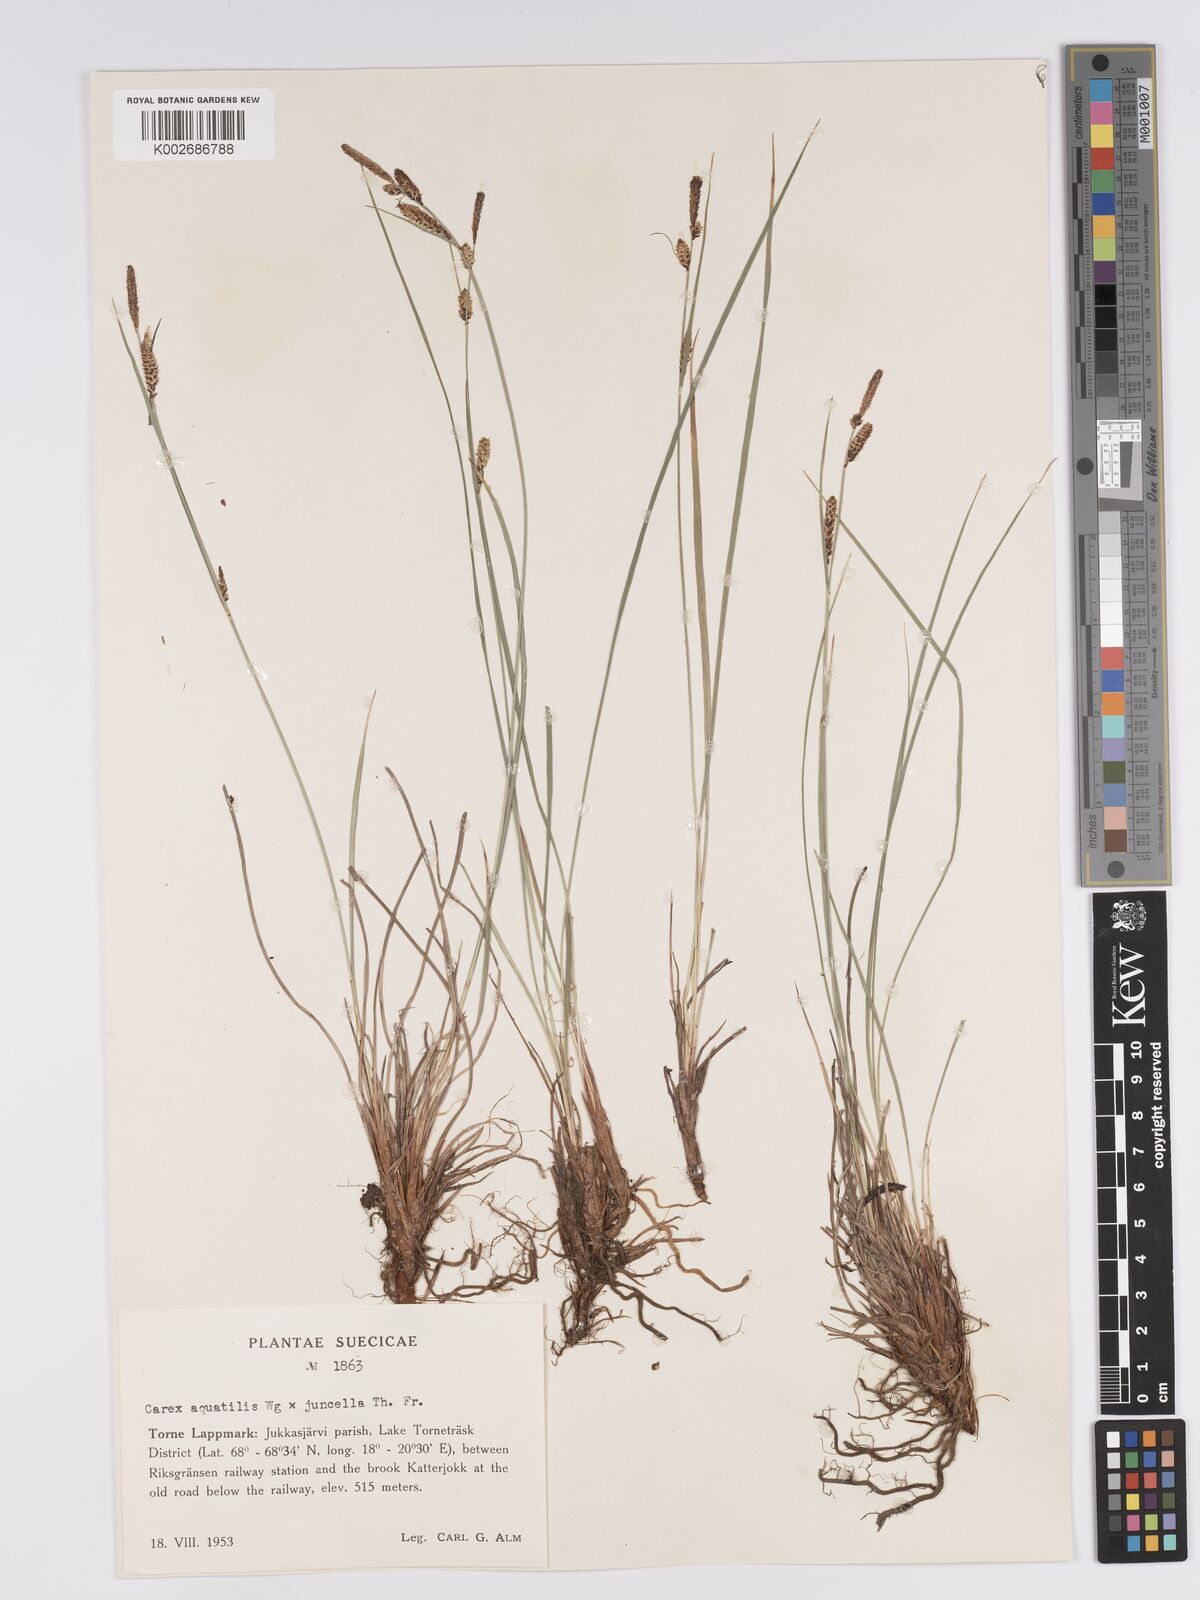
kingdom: Plantae
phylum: Tracheophyta
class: Liliopsida
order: Poales
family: Cyperaceae
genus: Carex
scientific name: Carex aquatilis
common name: Water sedge
